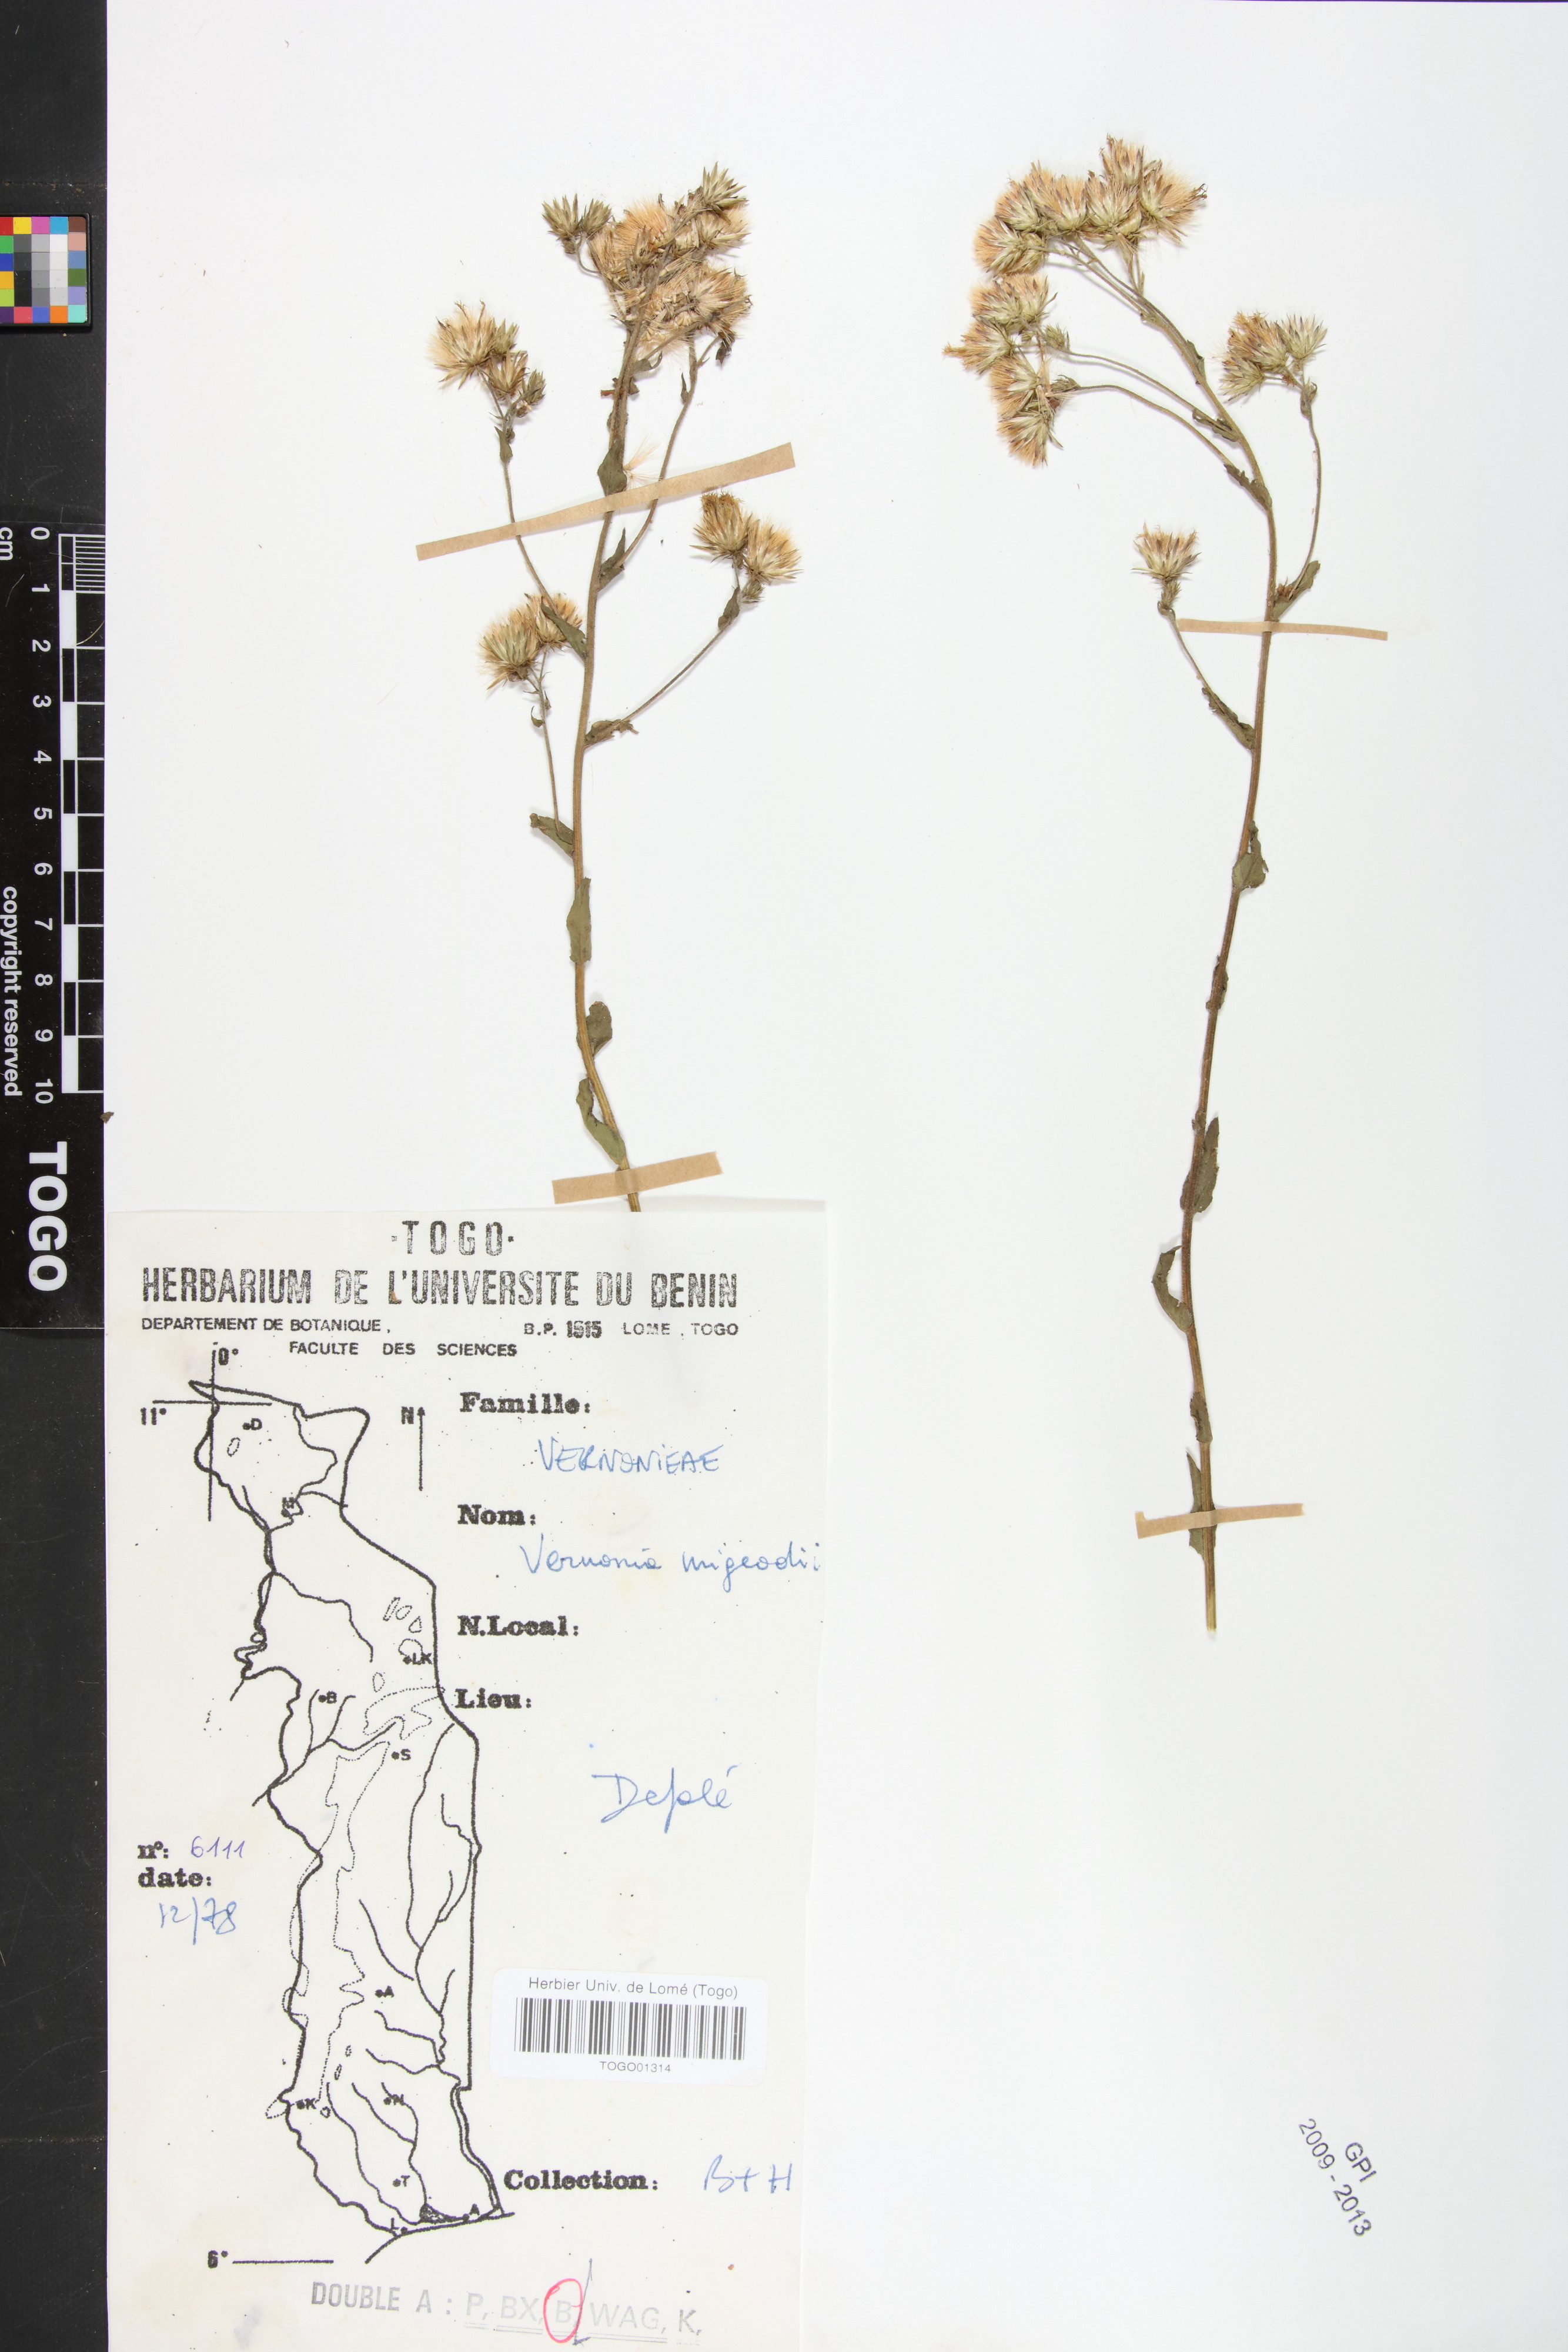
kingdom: Plantae
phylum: Tracheophyta
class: Magnoliopsida
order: Asterales
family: Asteraceae
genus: Vernoniastrum
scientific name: Vernoniastrum migeodii
